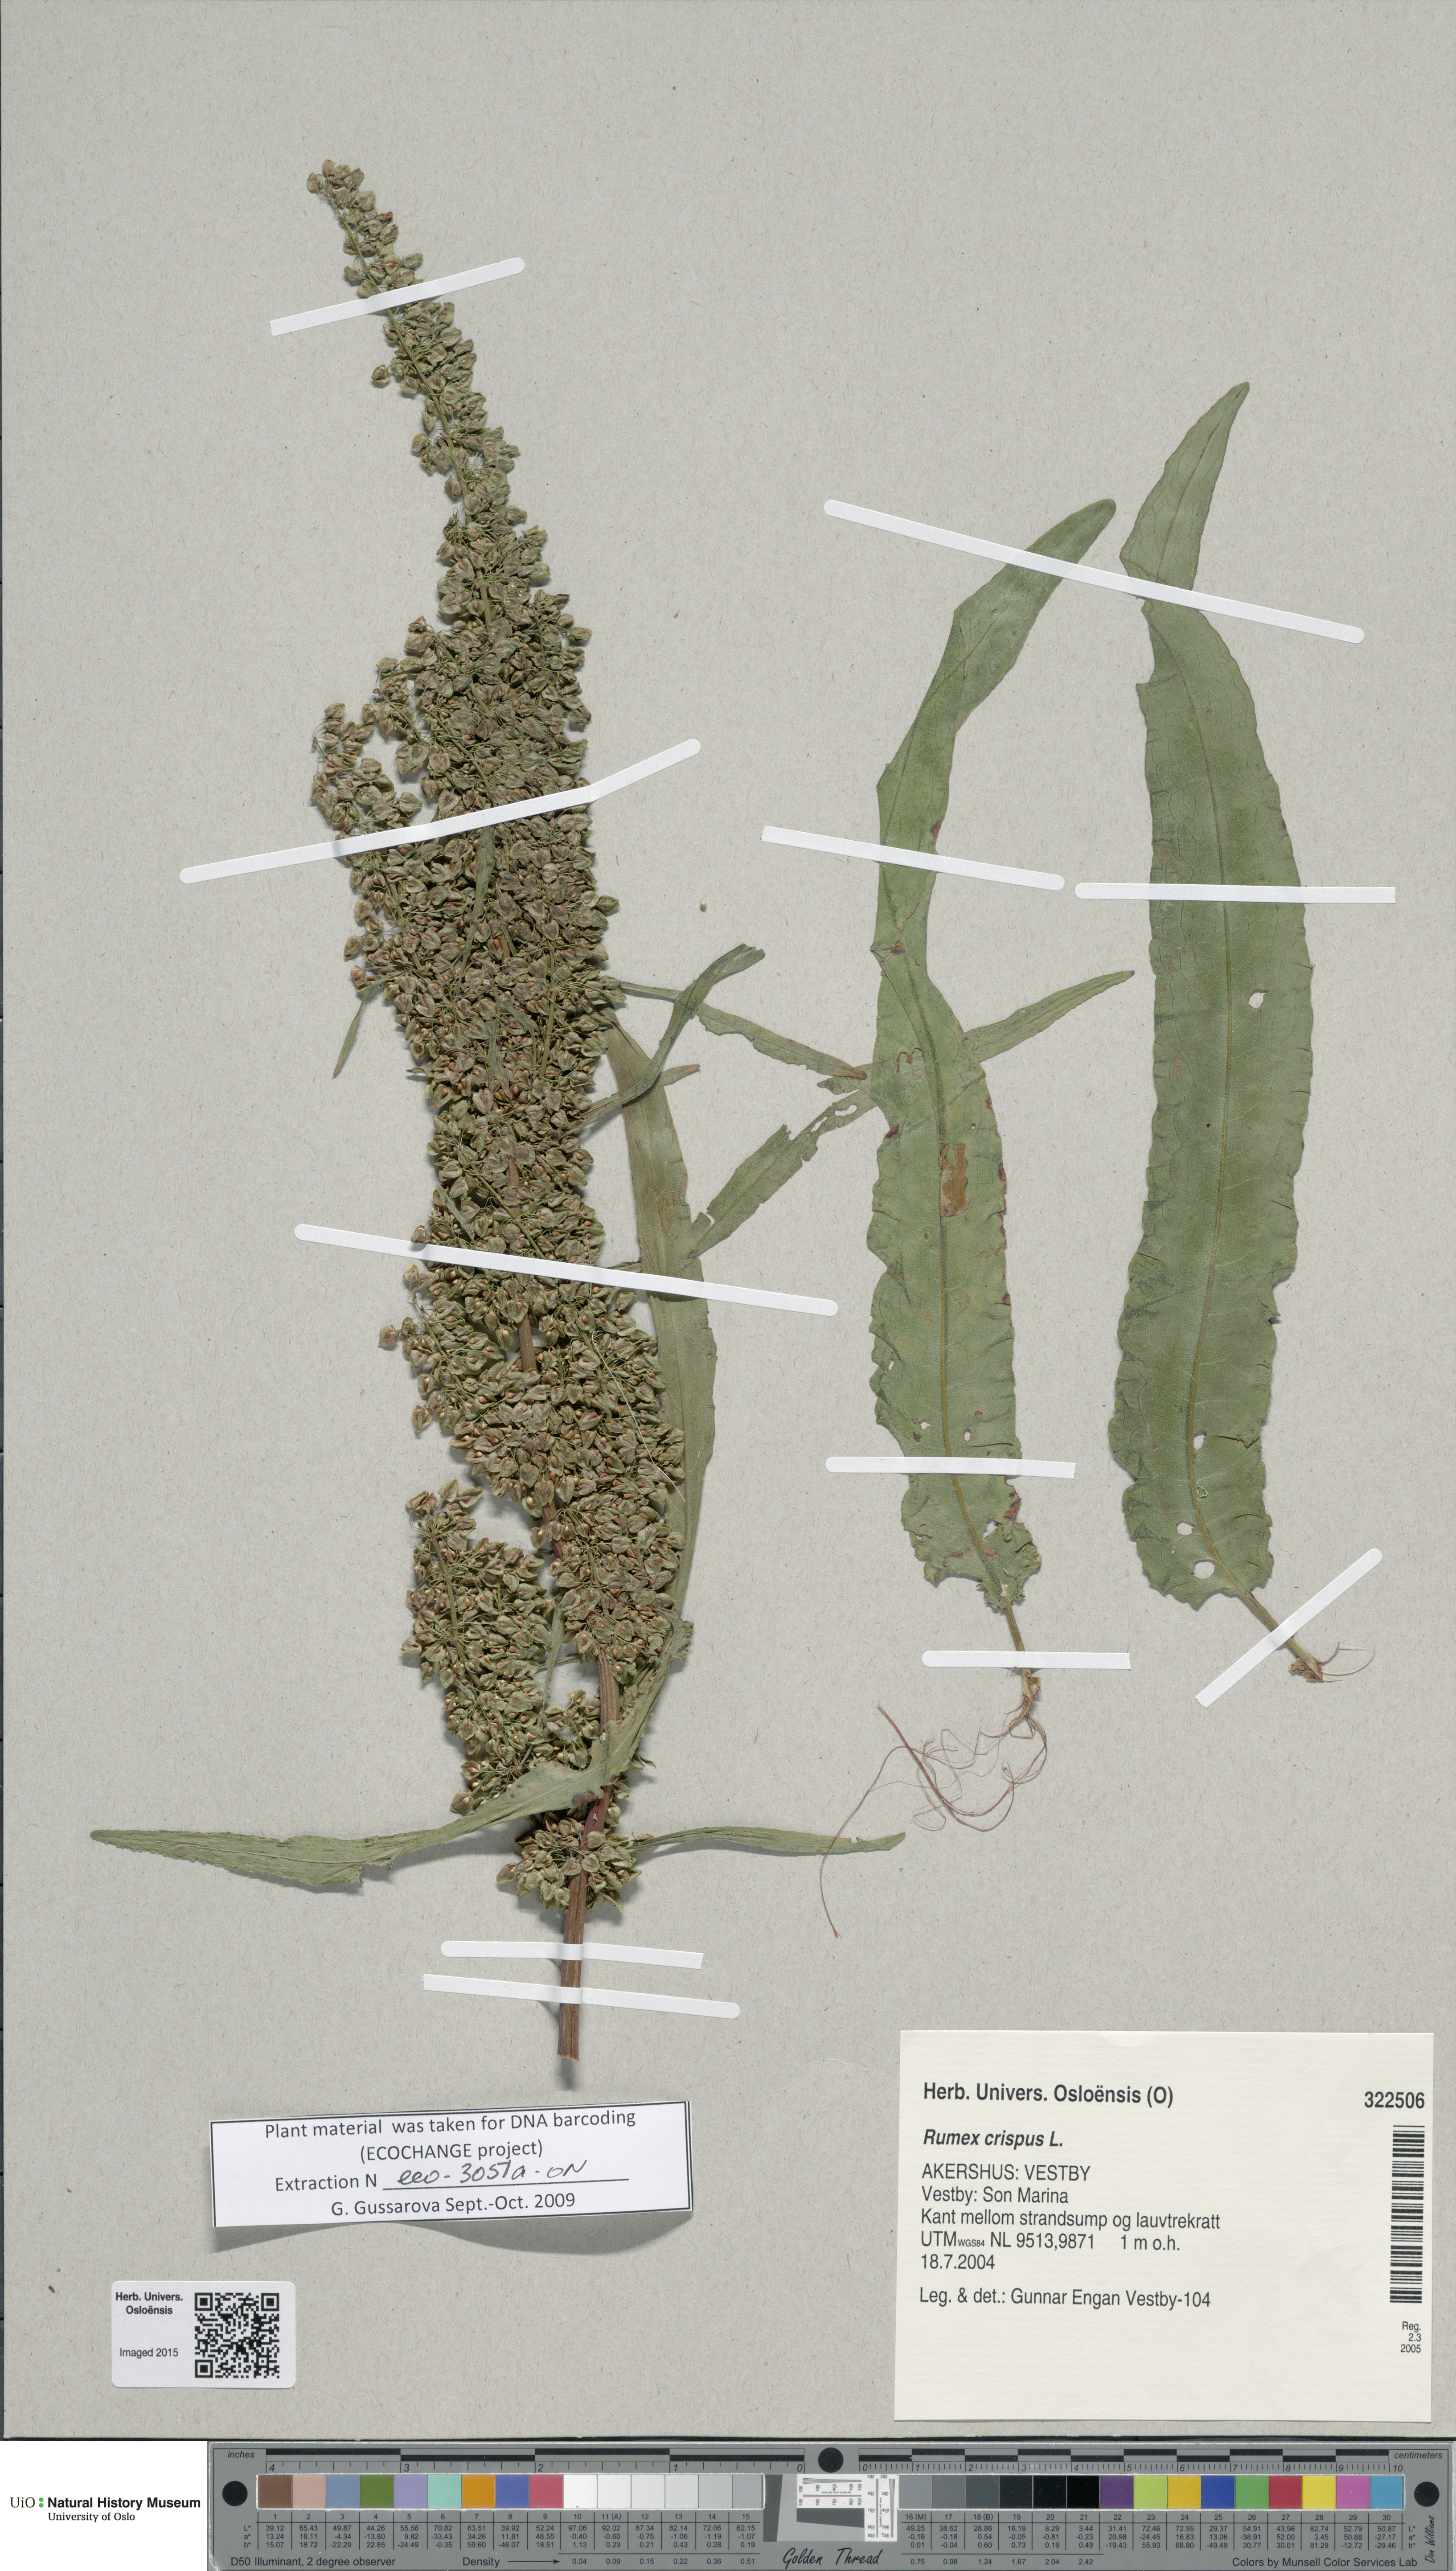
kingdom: Plantae
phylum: Tracheophyta
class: Magnoliopsida
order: Caryophyllales
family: Polygonaceae
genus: Rumex
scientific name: Rumex crispus
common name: Curled dock
